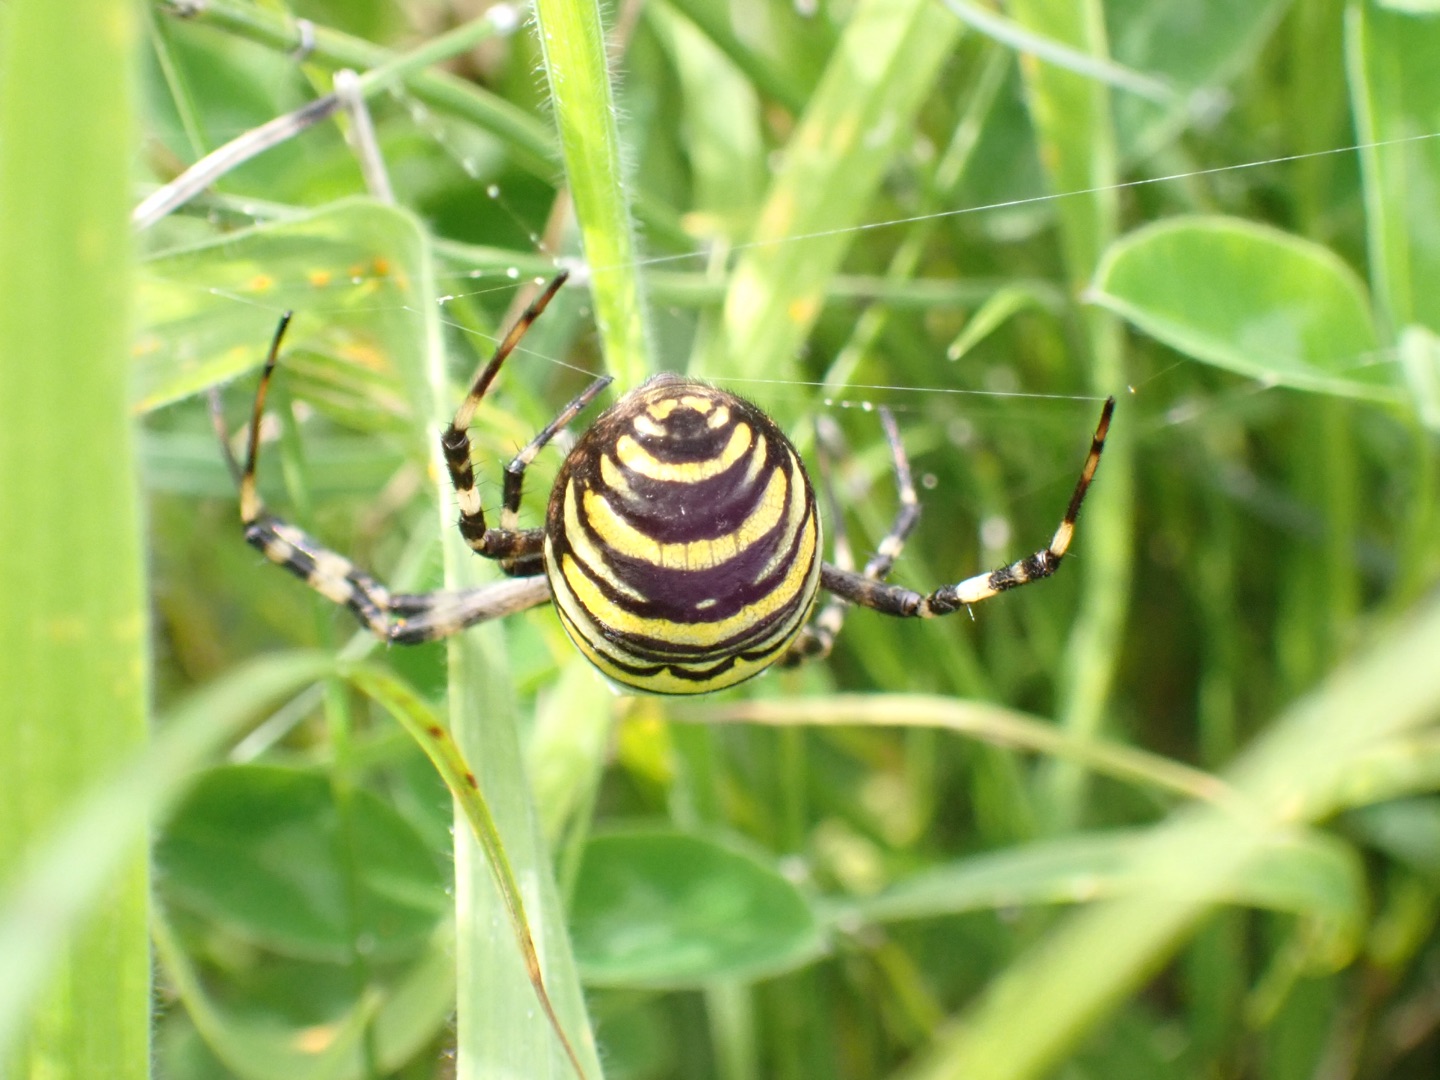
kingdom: Animalia
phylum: Arthropoda
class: Arachnida
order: Araneae
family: Araneidae
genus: Argiope
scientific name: Argiope bruennichi
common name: Hvepseedderkop
